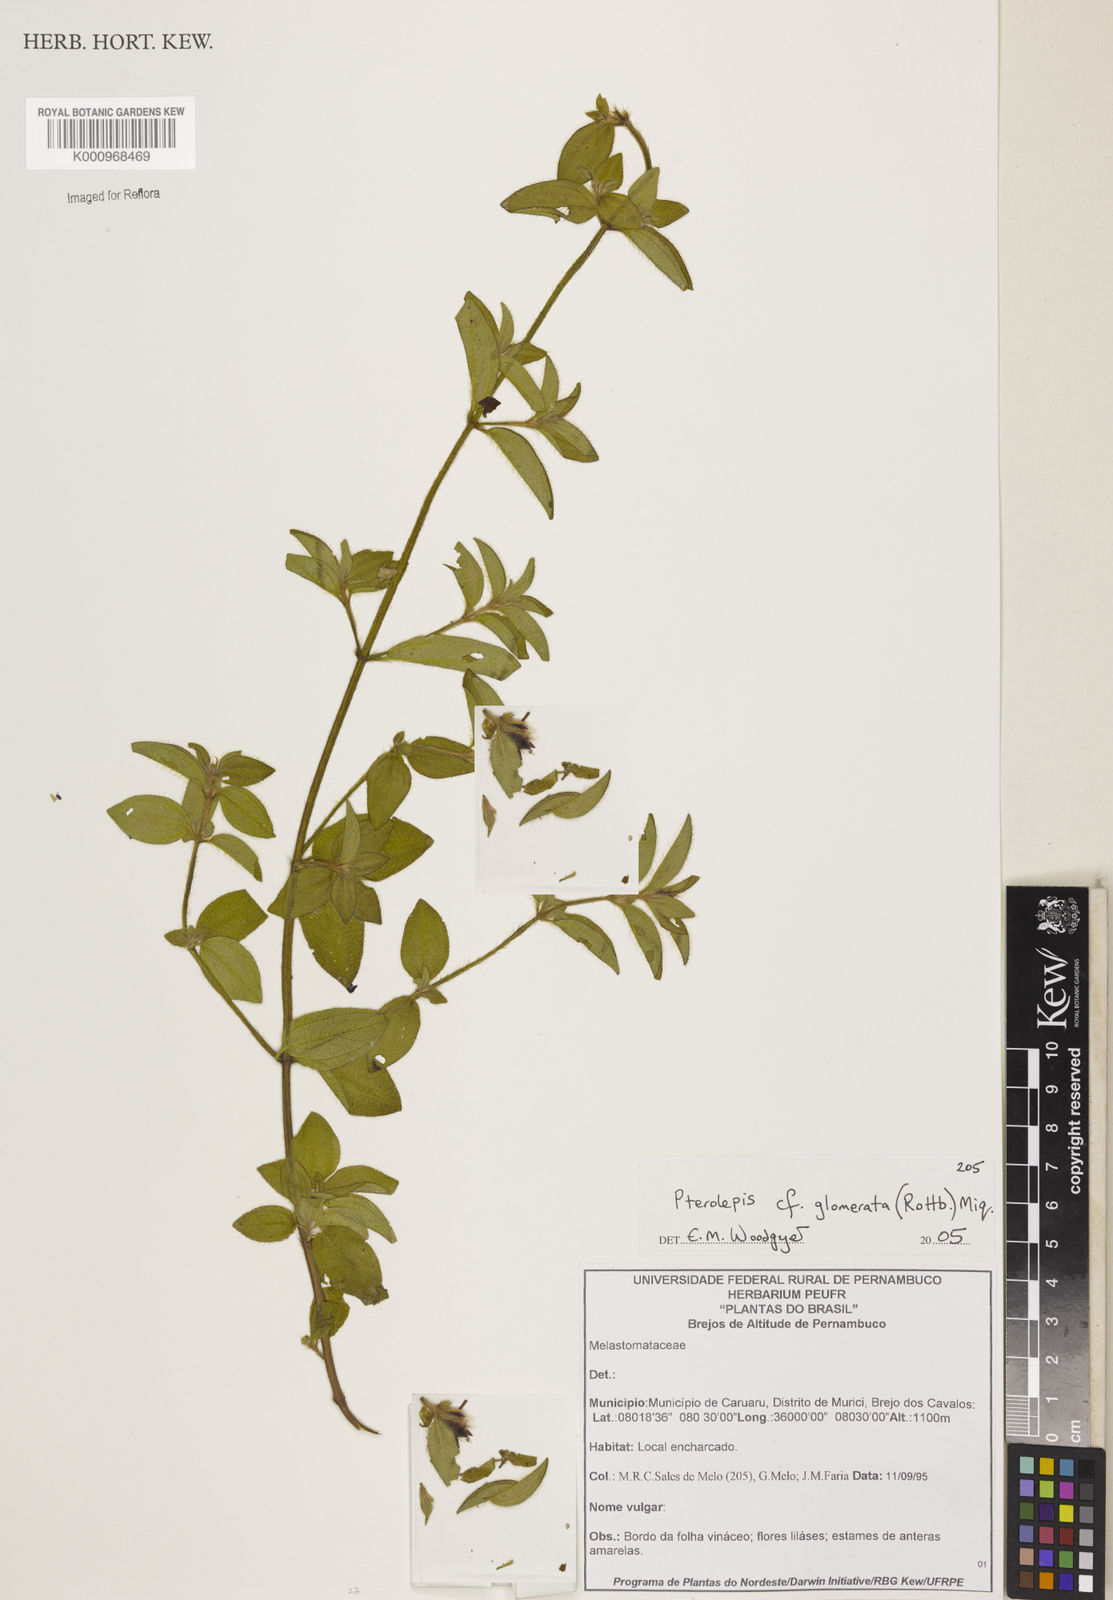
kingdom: Plantae
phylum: Tracheophyta
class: Magnoliopsida
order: Myrtales
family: Melastomataceae
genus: Pterolepis
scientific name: Pterolepis glomerata
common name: False meadowbeauty
